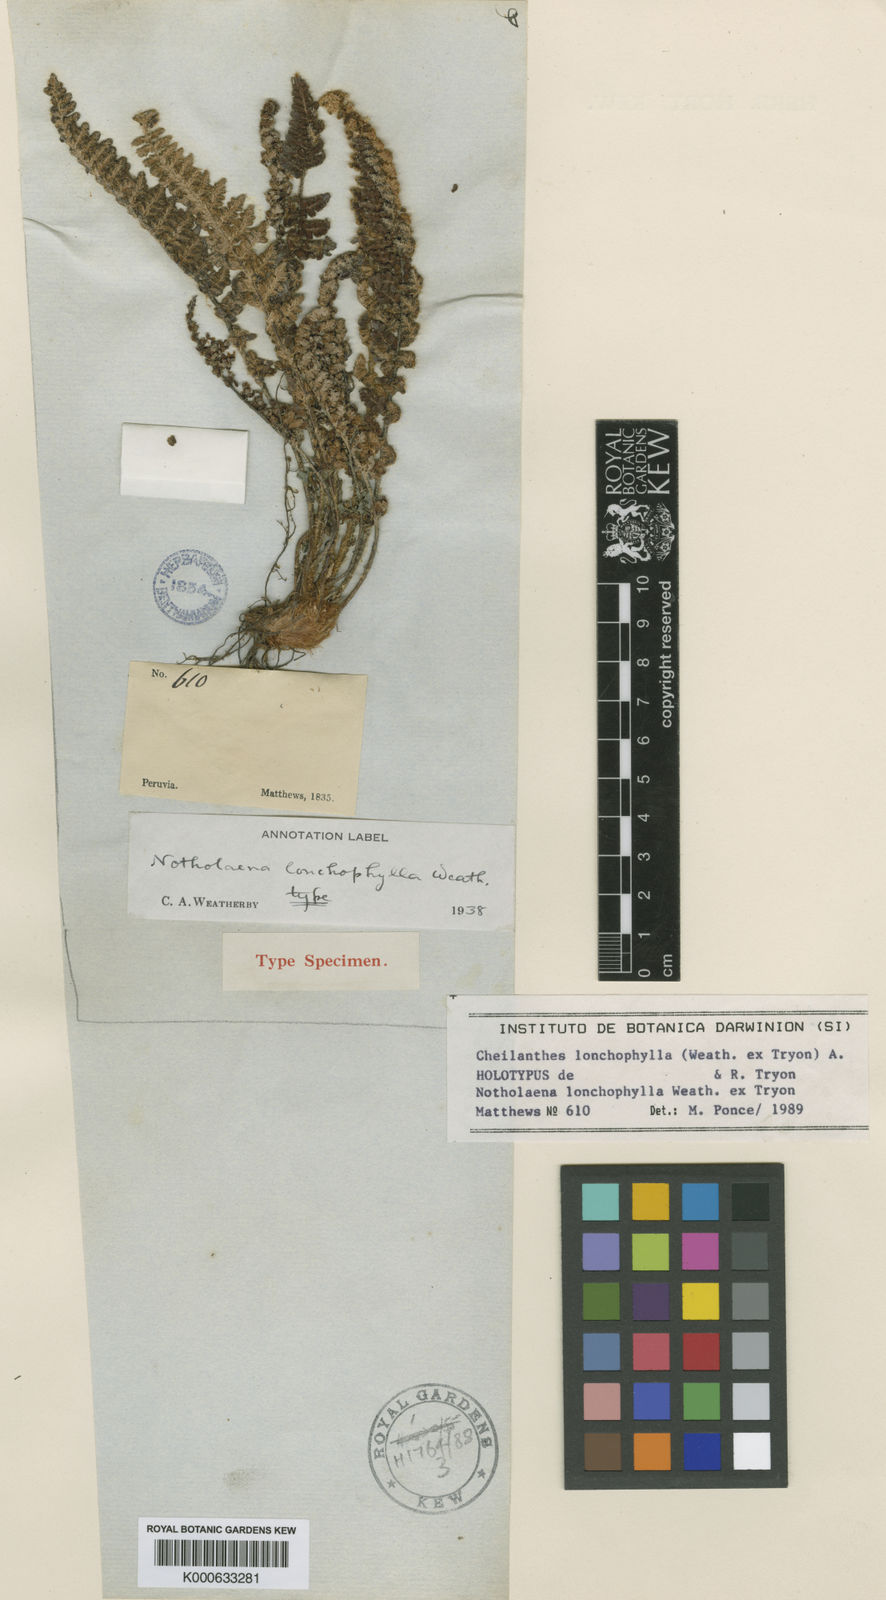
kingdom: Plantae
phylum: Tracheophyta
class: Polypodiopsida
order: Polypodiales
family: Pteridaceae
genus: Cheilanthes
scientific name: Cheilanthes lonchophylla
